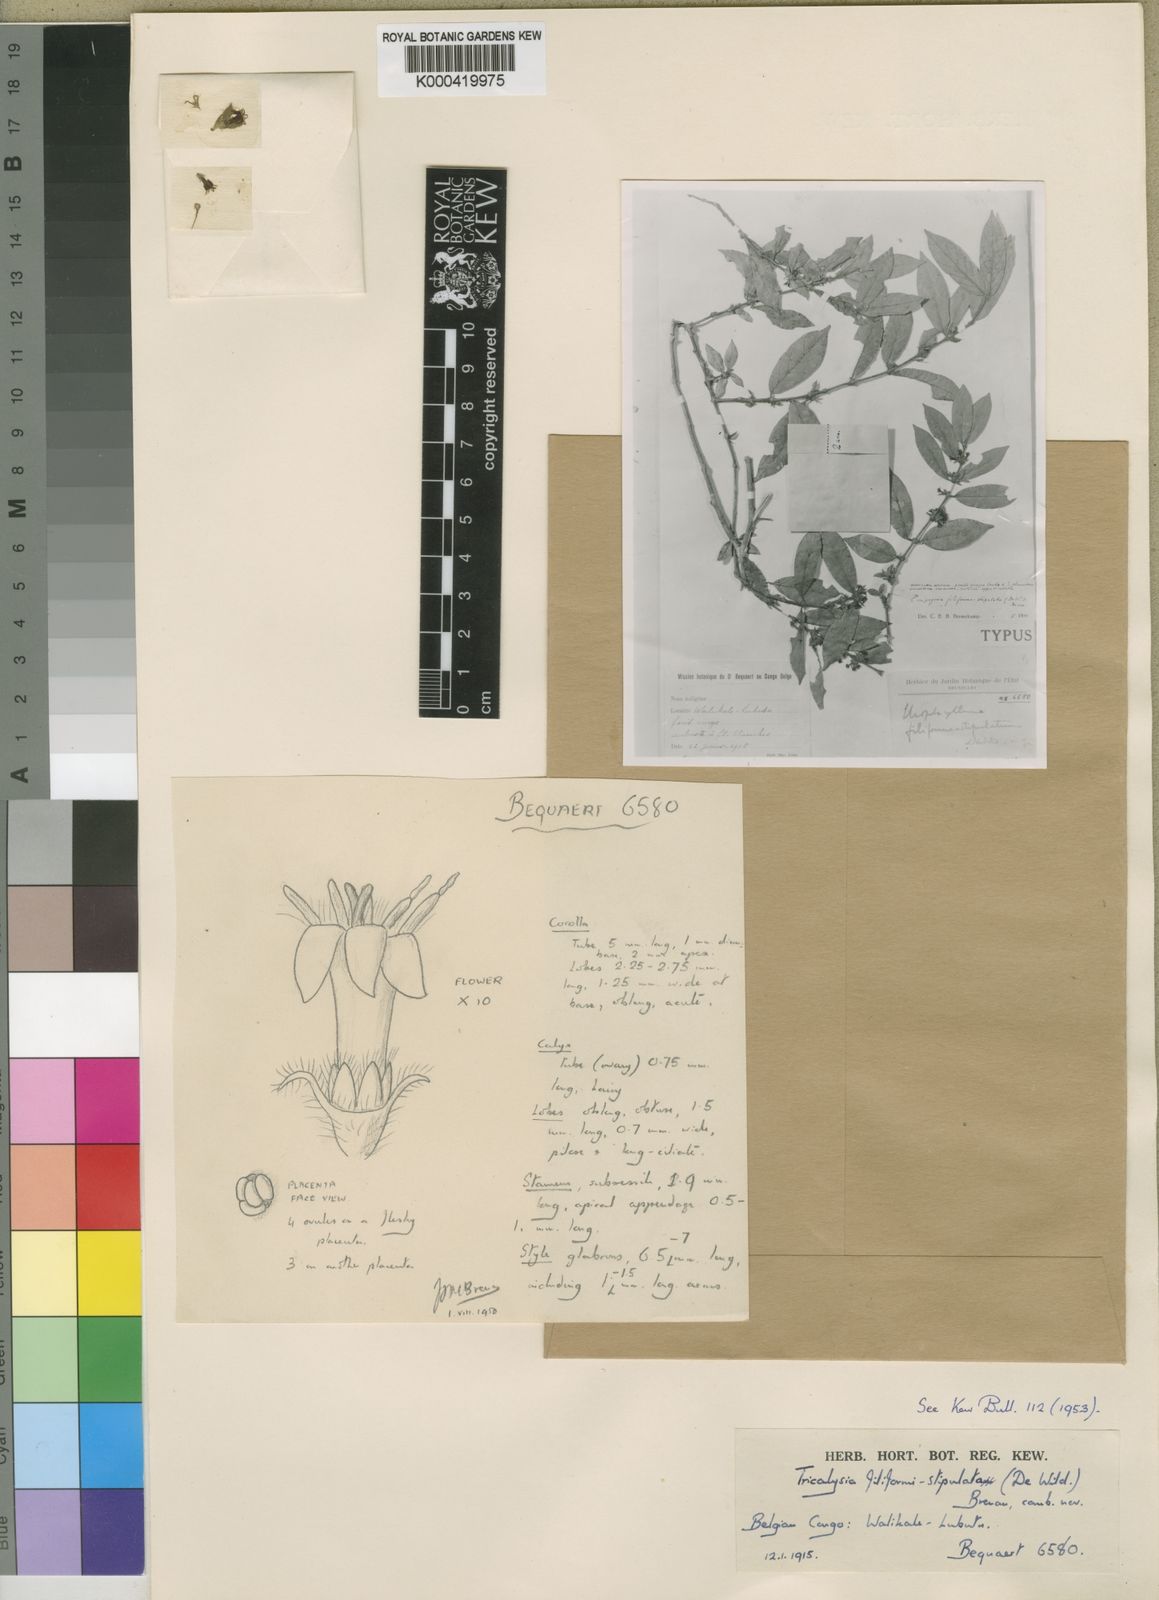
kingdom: Plantae
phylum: Tracheophyta
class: Magnoliopsida
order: Gentianales
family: Rubiaceae
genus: Empogona
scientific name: Empogona filiformistipulata
